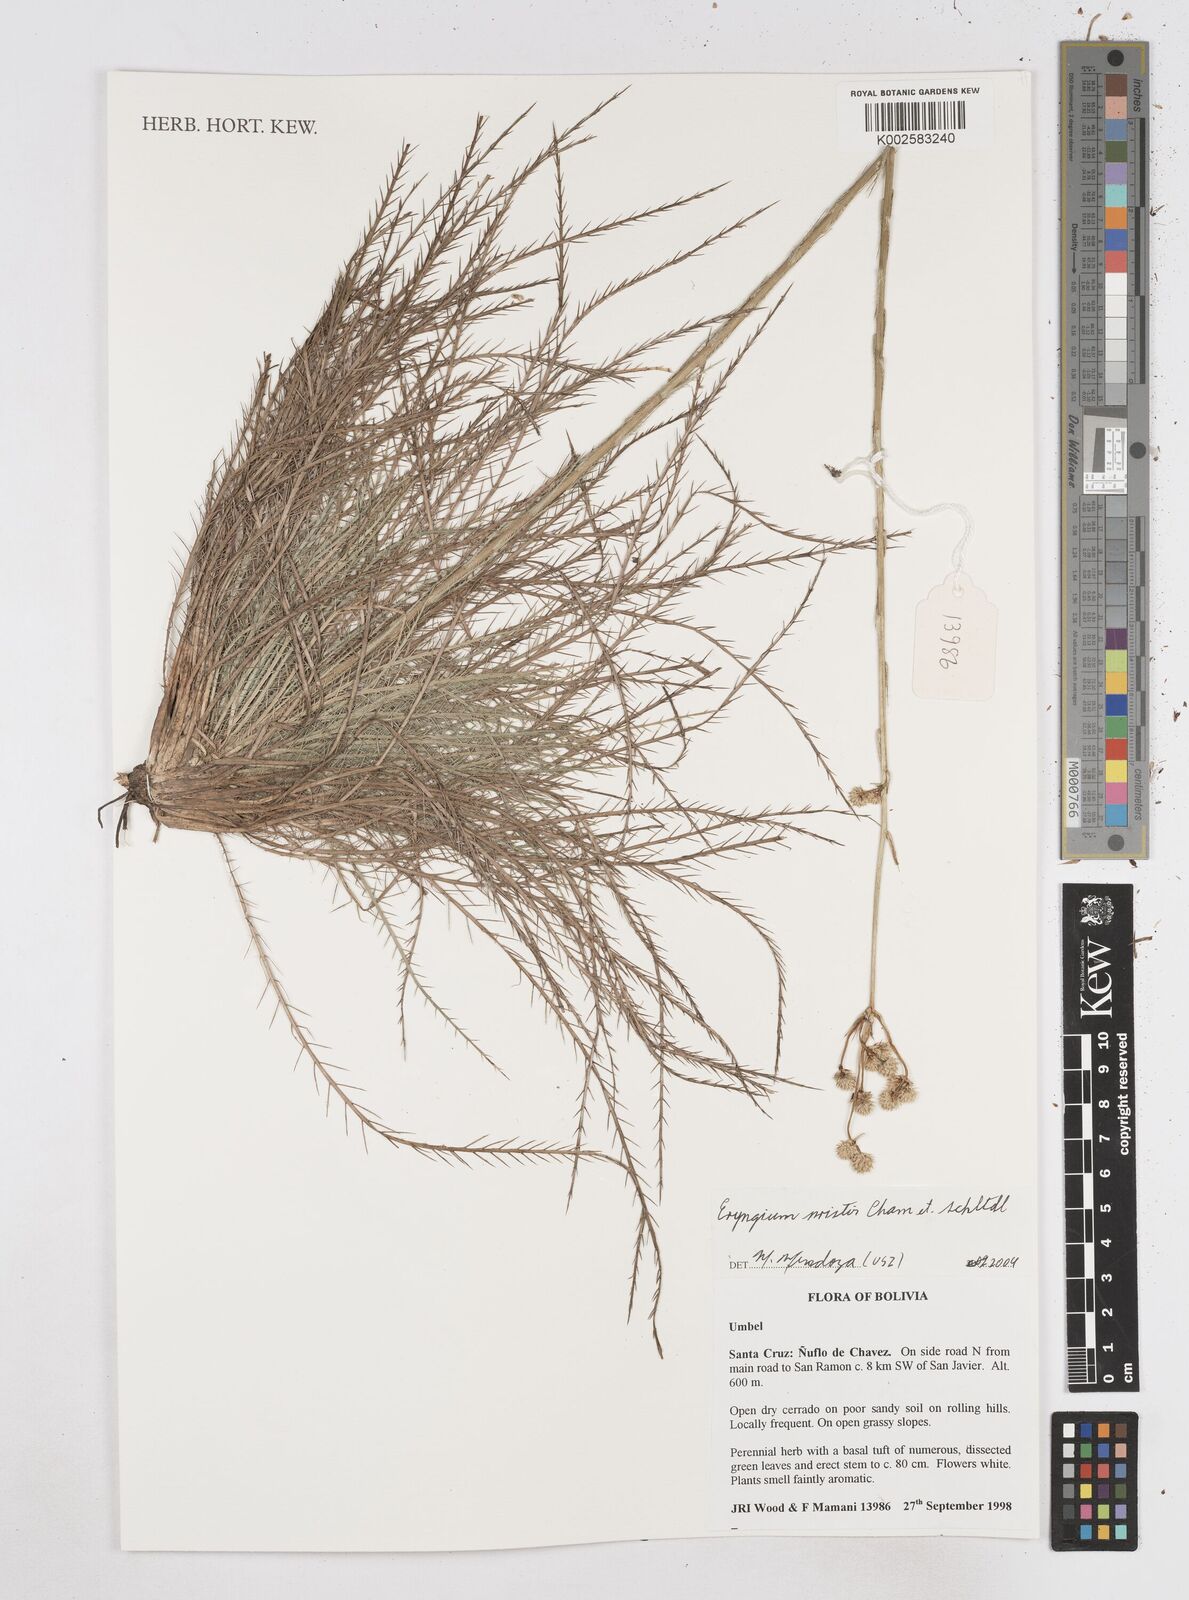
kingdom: Plantae
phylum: Tracheophyta
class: Magnoliopsida
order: Apiales
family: Apiaceae
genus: Eryngium
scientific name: Eryngium pristis
